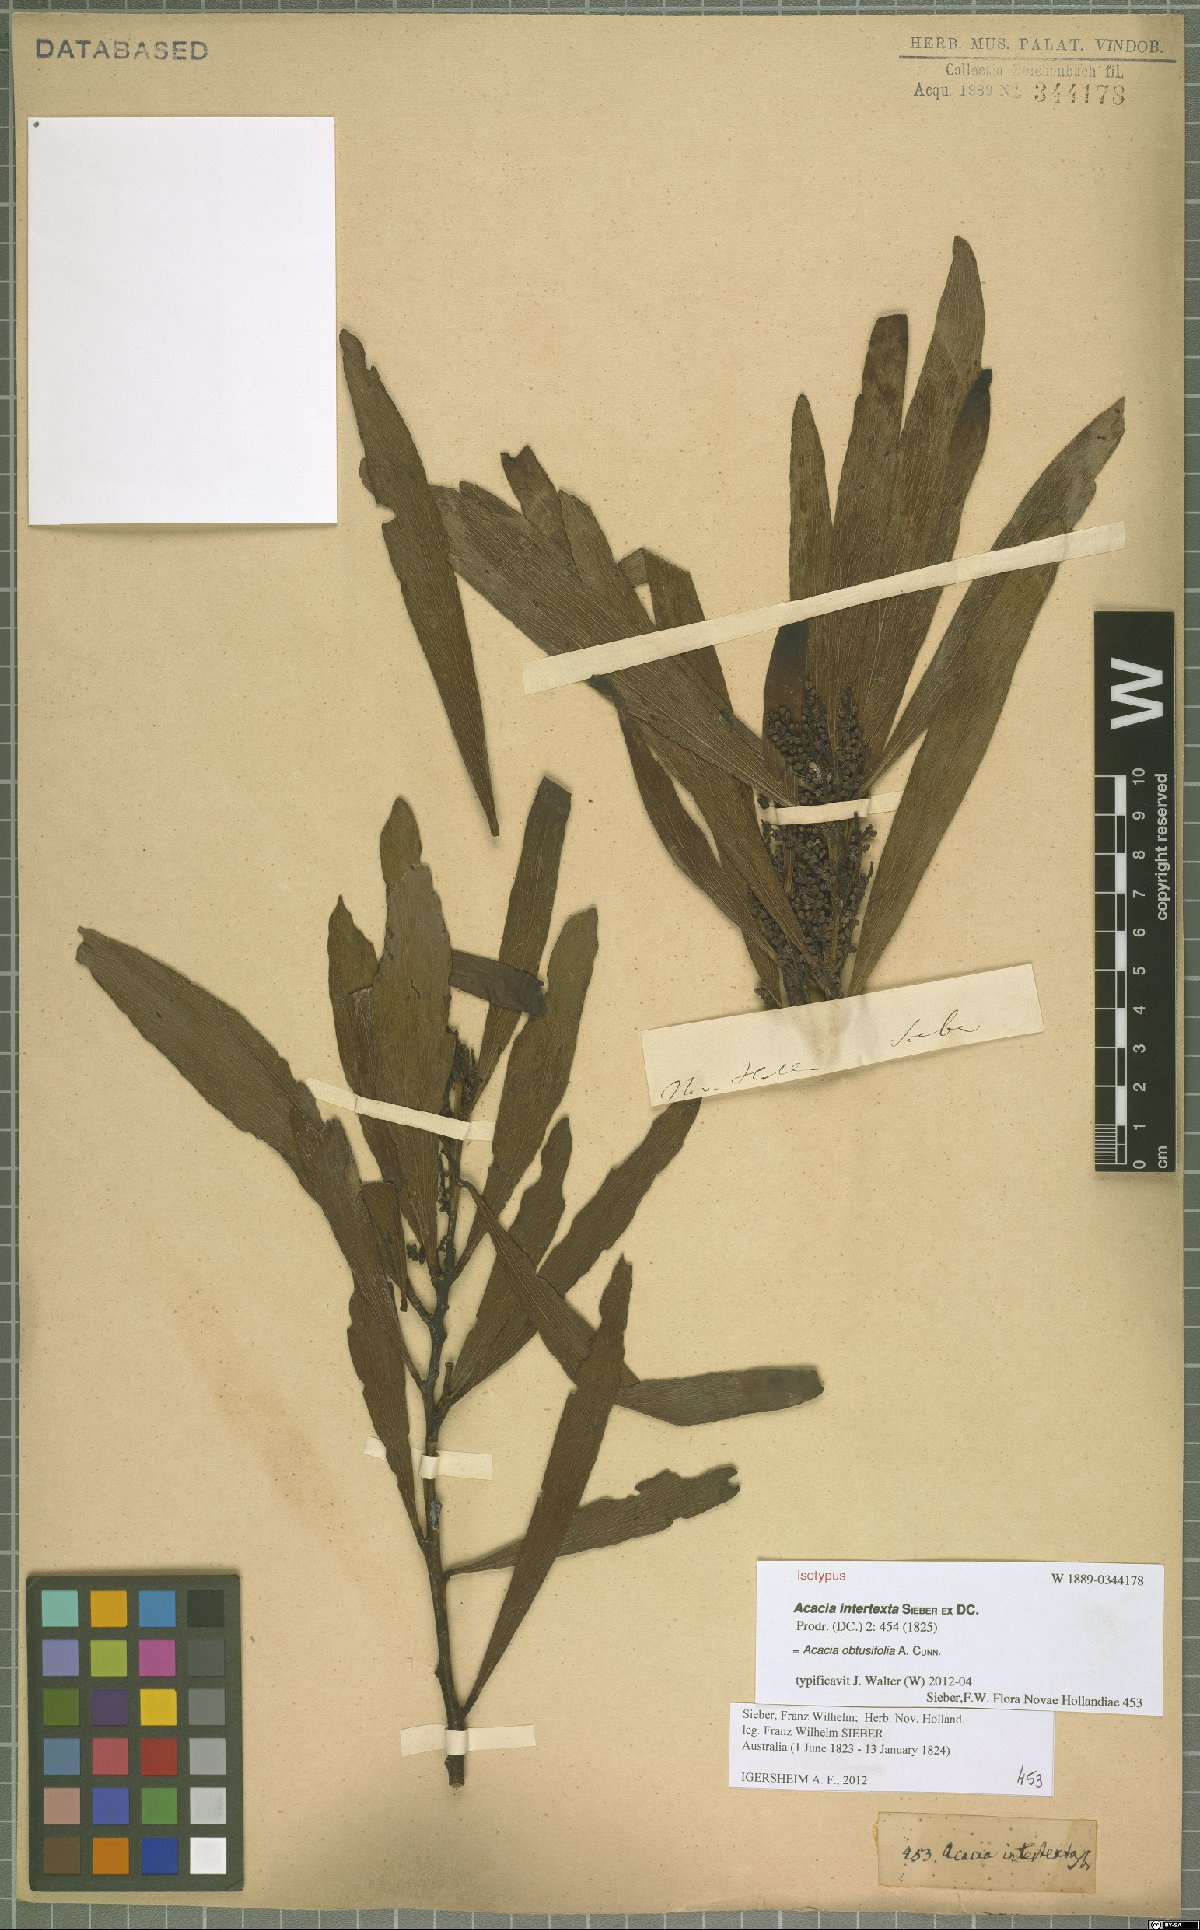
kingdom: Plantae
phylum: Tracheophyta
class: Magnoliopsida
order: Fabales
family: Fabaceae
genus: Acacia
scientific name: Acacia obtusifolia
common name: Stiff-leaf wattle
